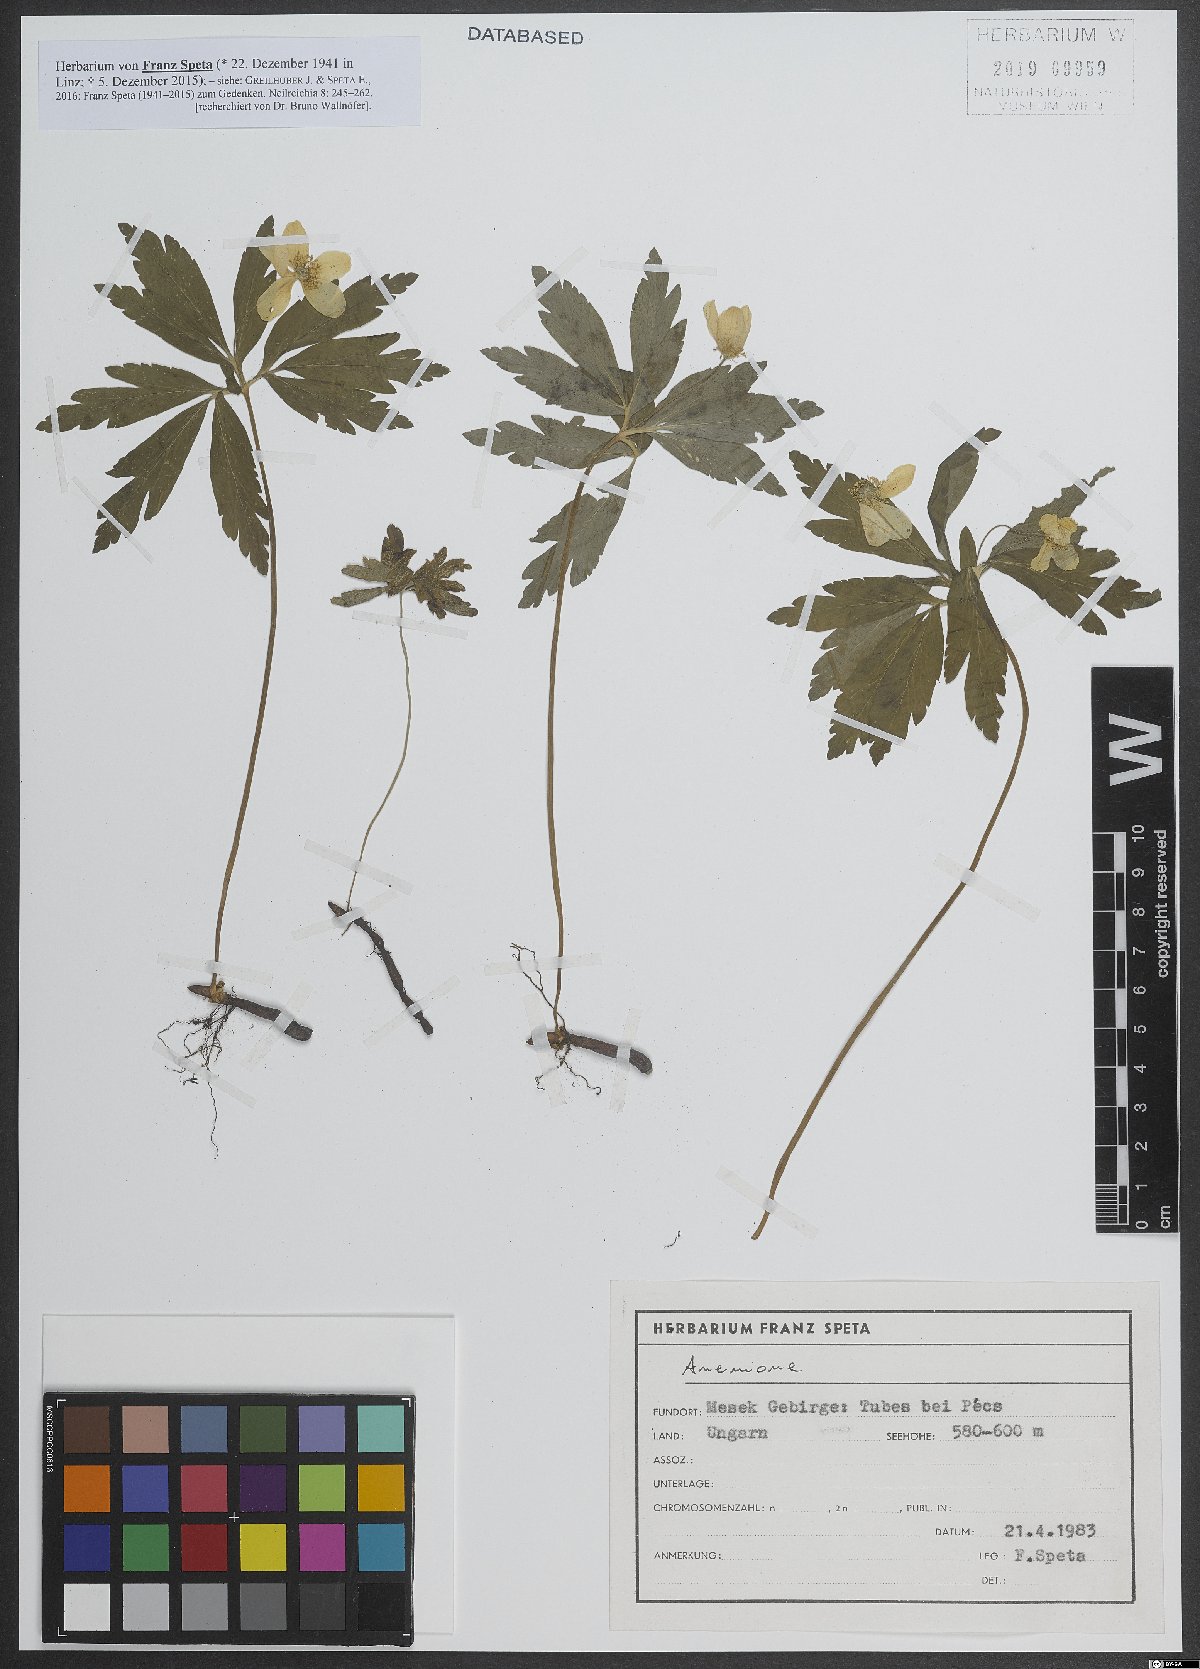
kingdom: Plantae
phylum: Tracheophyta
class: Magnoliopsida
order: Ranunculales
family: Ranunculaceae
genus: Anemone
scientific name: Anemone
